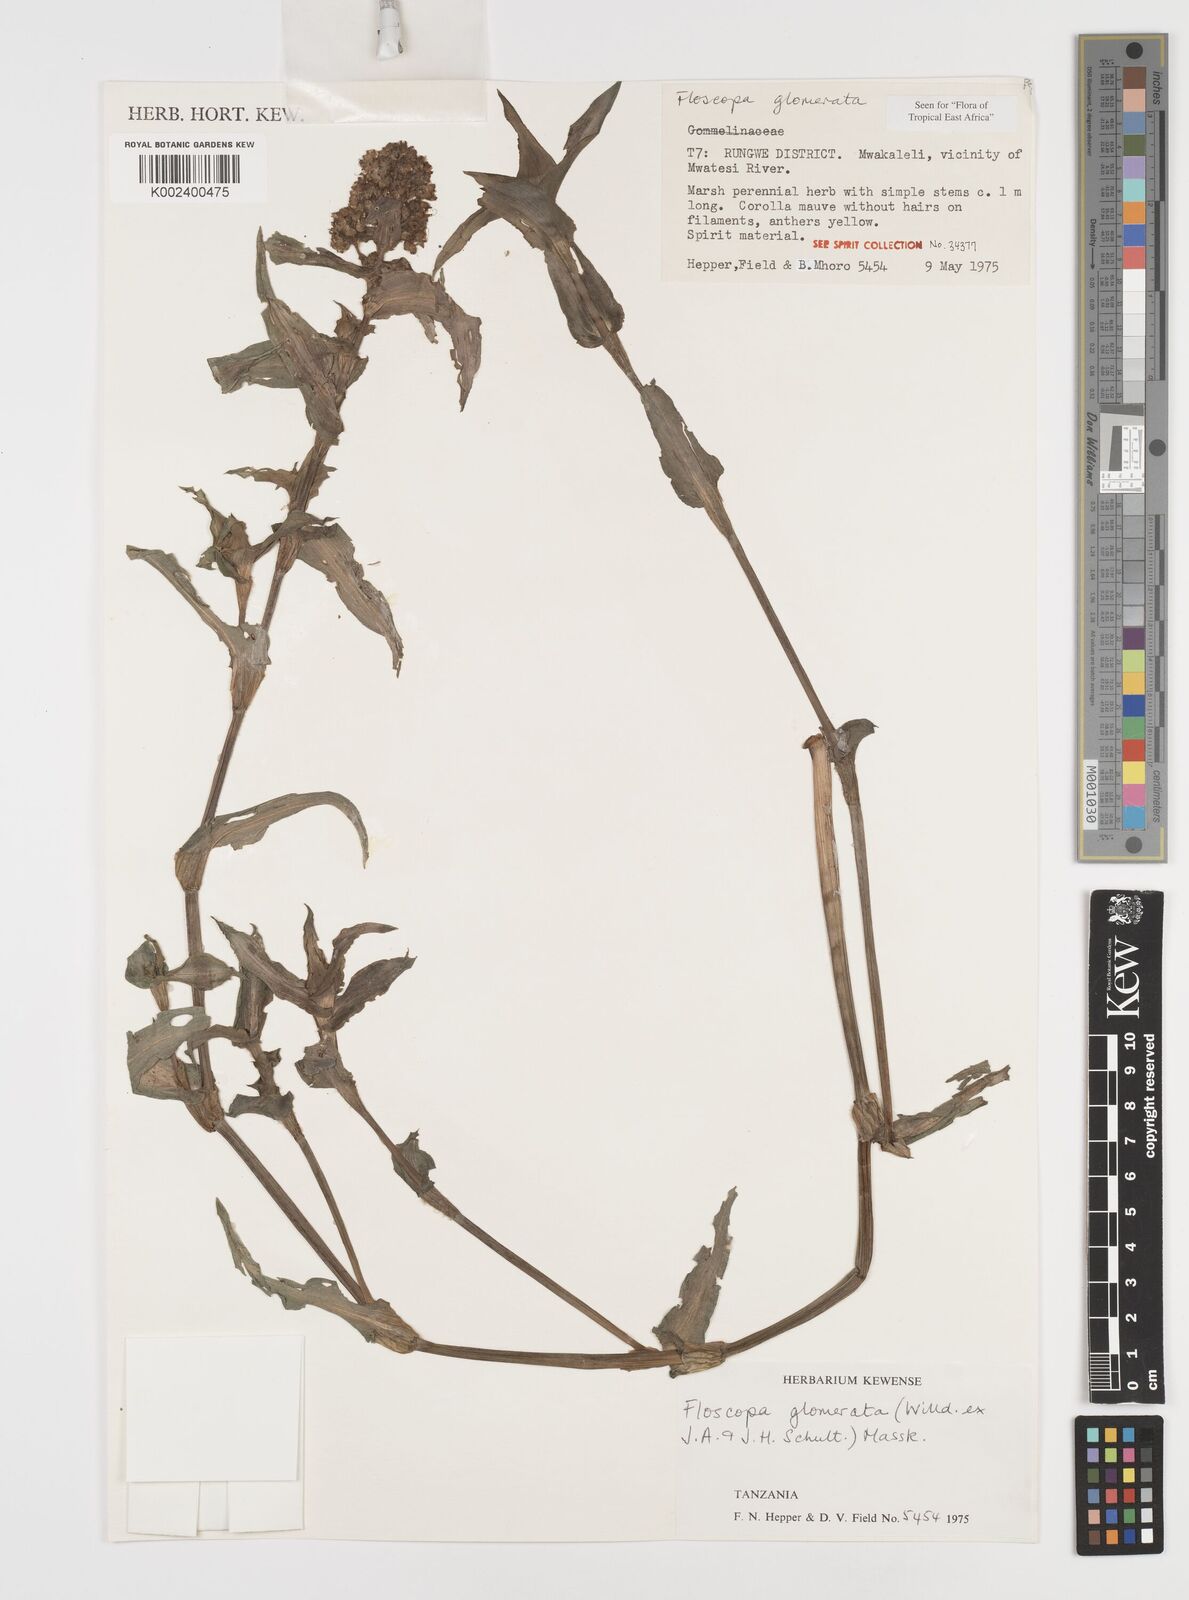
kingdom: Plantae
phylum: Tracheophyta
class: Liliopsida
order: Commelinales
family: Commelinaceae
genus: Floscopa
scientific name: Floscopa glomerata
